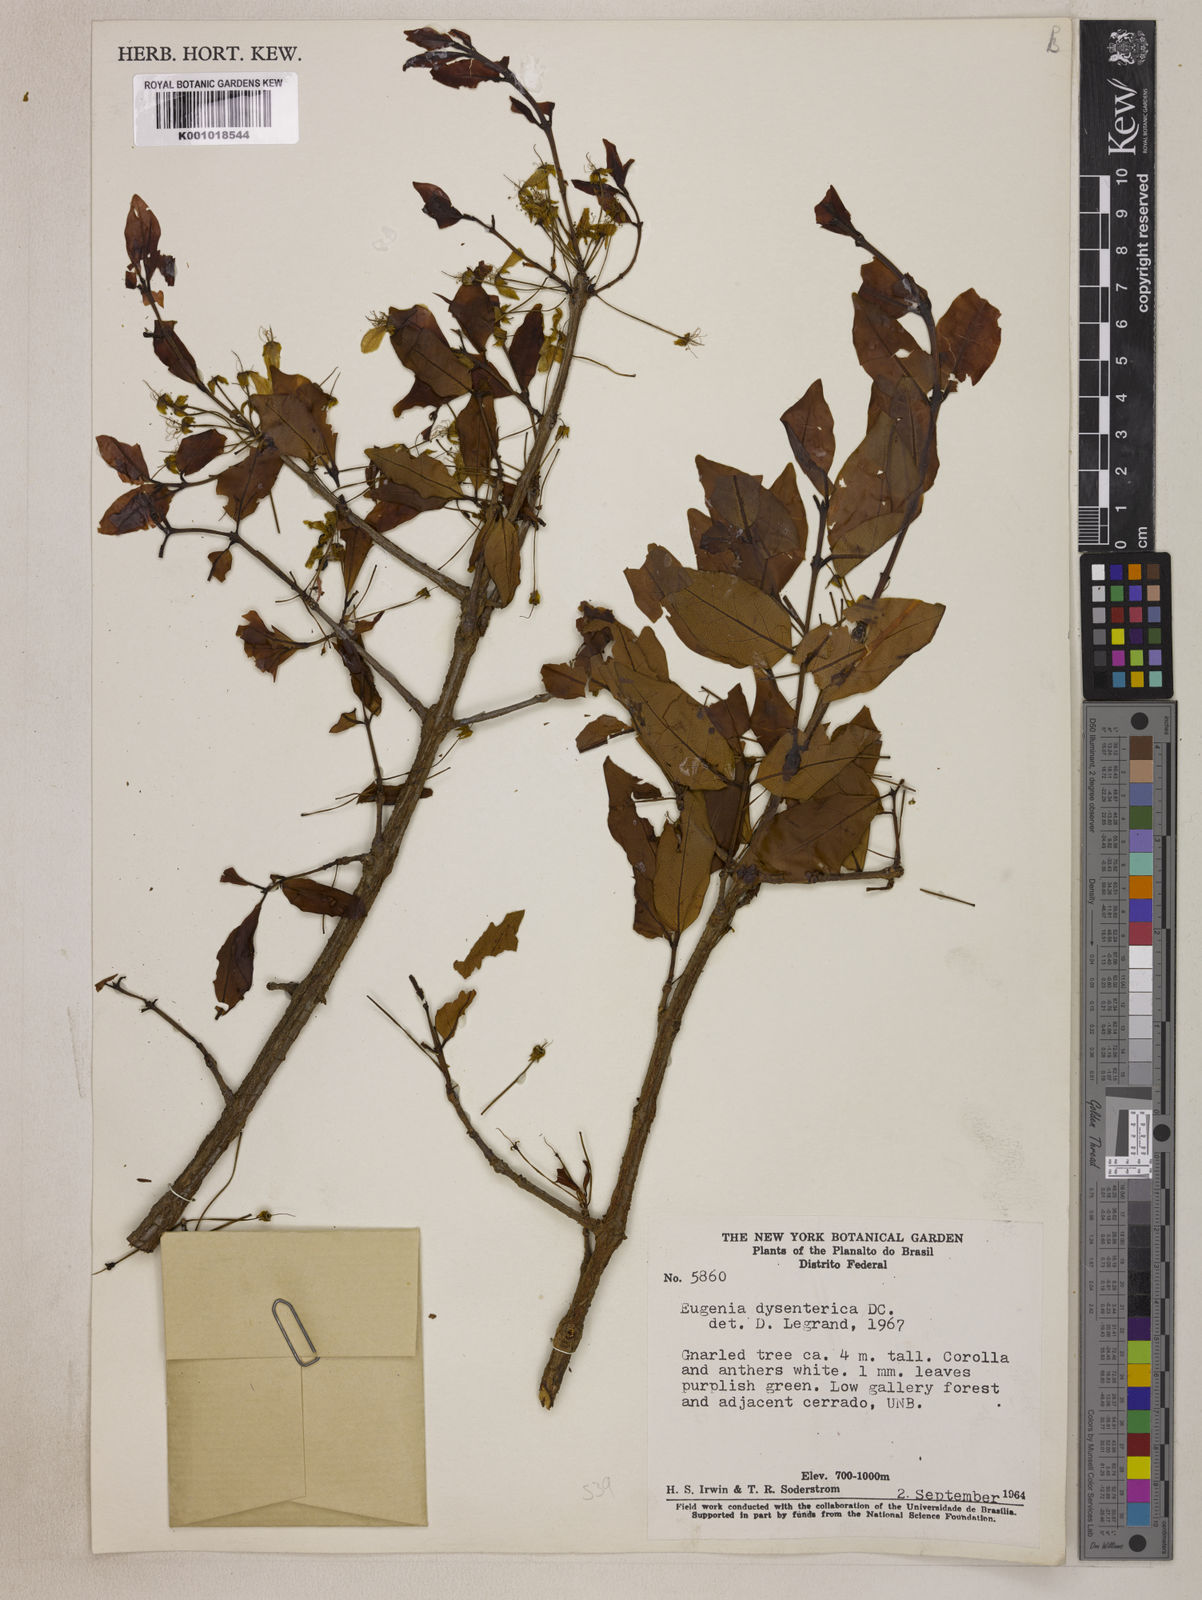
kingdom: Plantae
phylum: Tracheophyta
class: Magnoliopsida
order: Myrtales
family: Myrtaceae
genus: Eugenia
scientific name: Eugenia dysenterica
